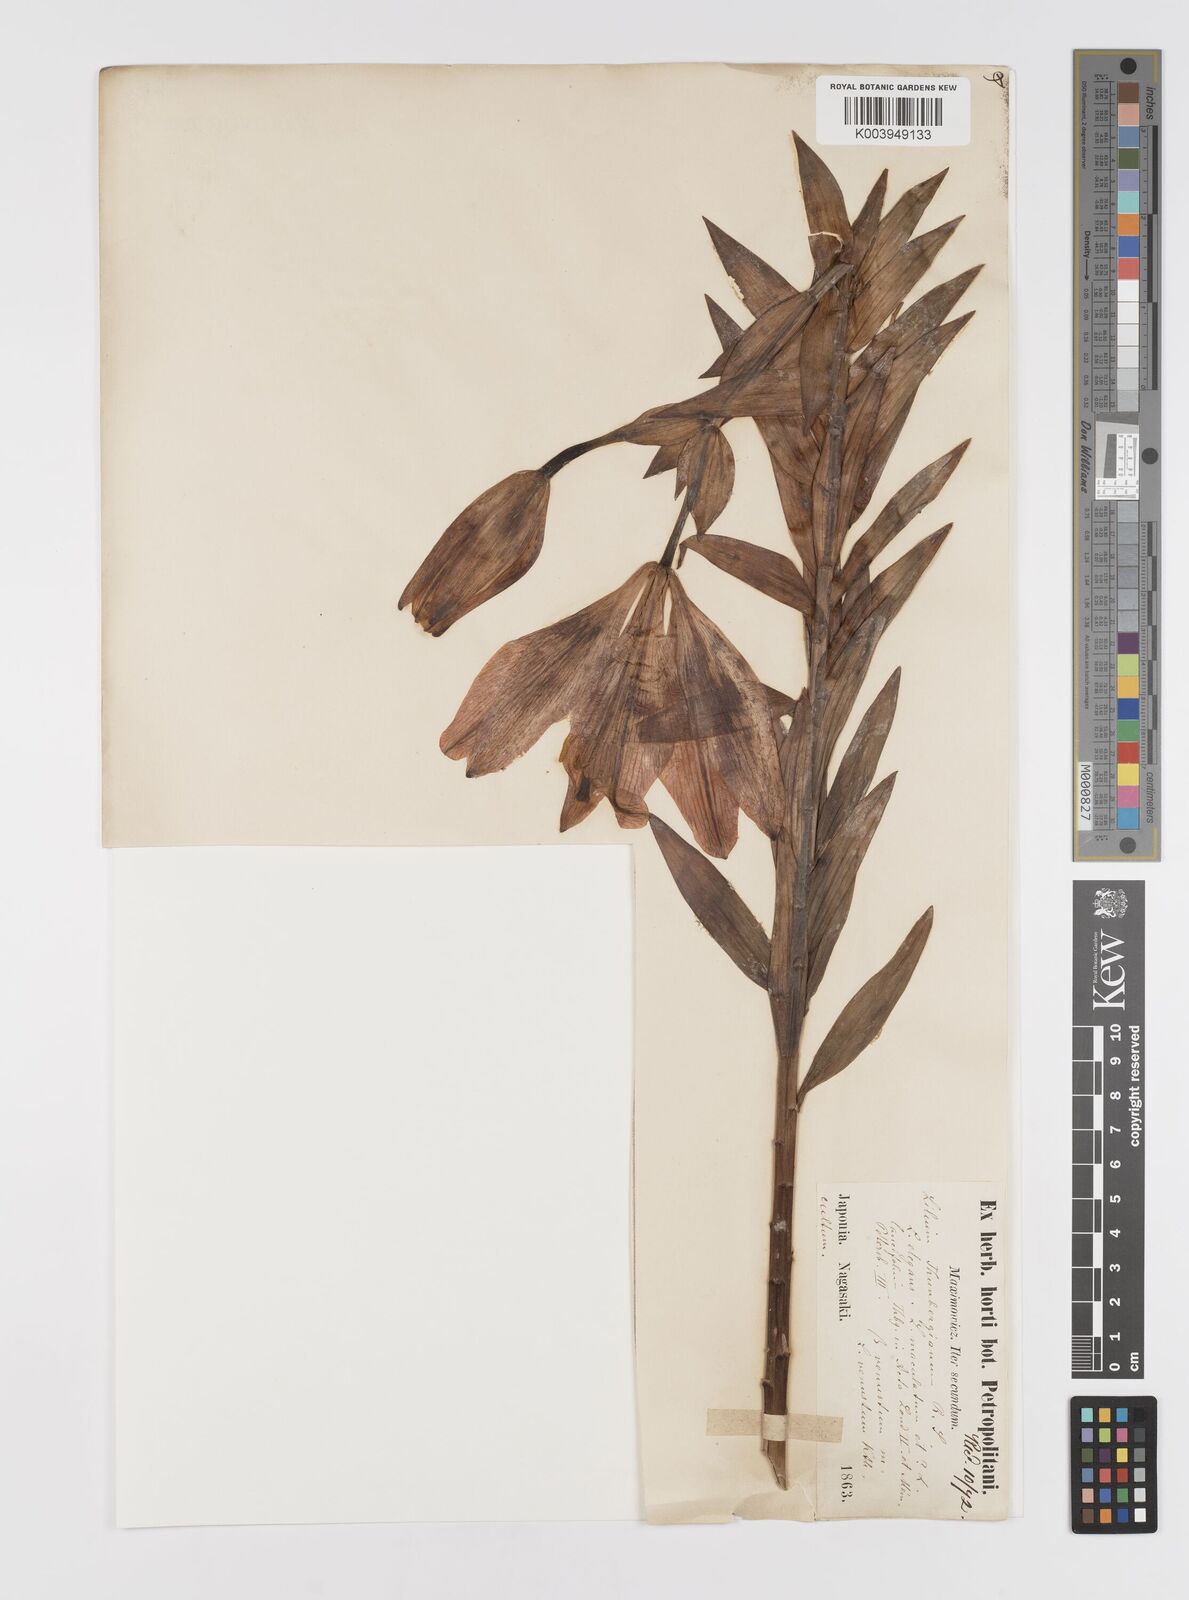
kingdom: Plantae
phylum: Tracheophyta
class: Liliopsida
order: Liliales
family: Liliaceae
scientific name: Liliaceae
